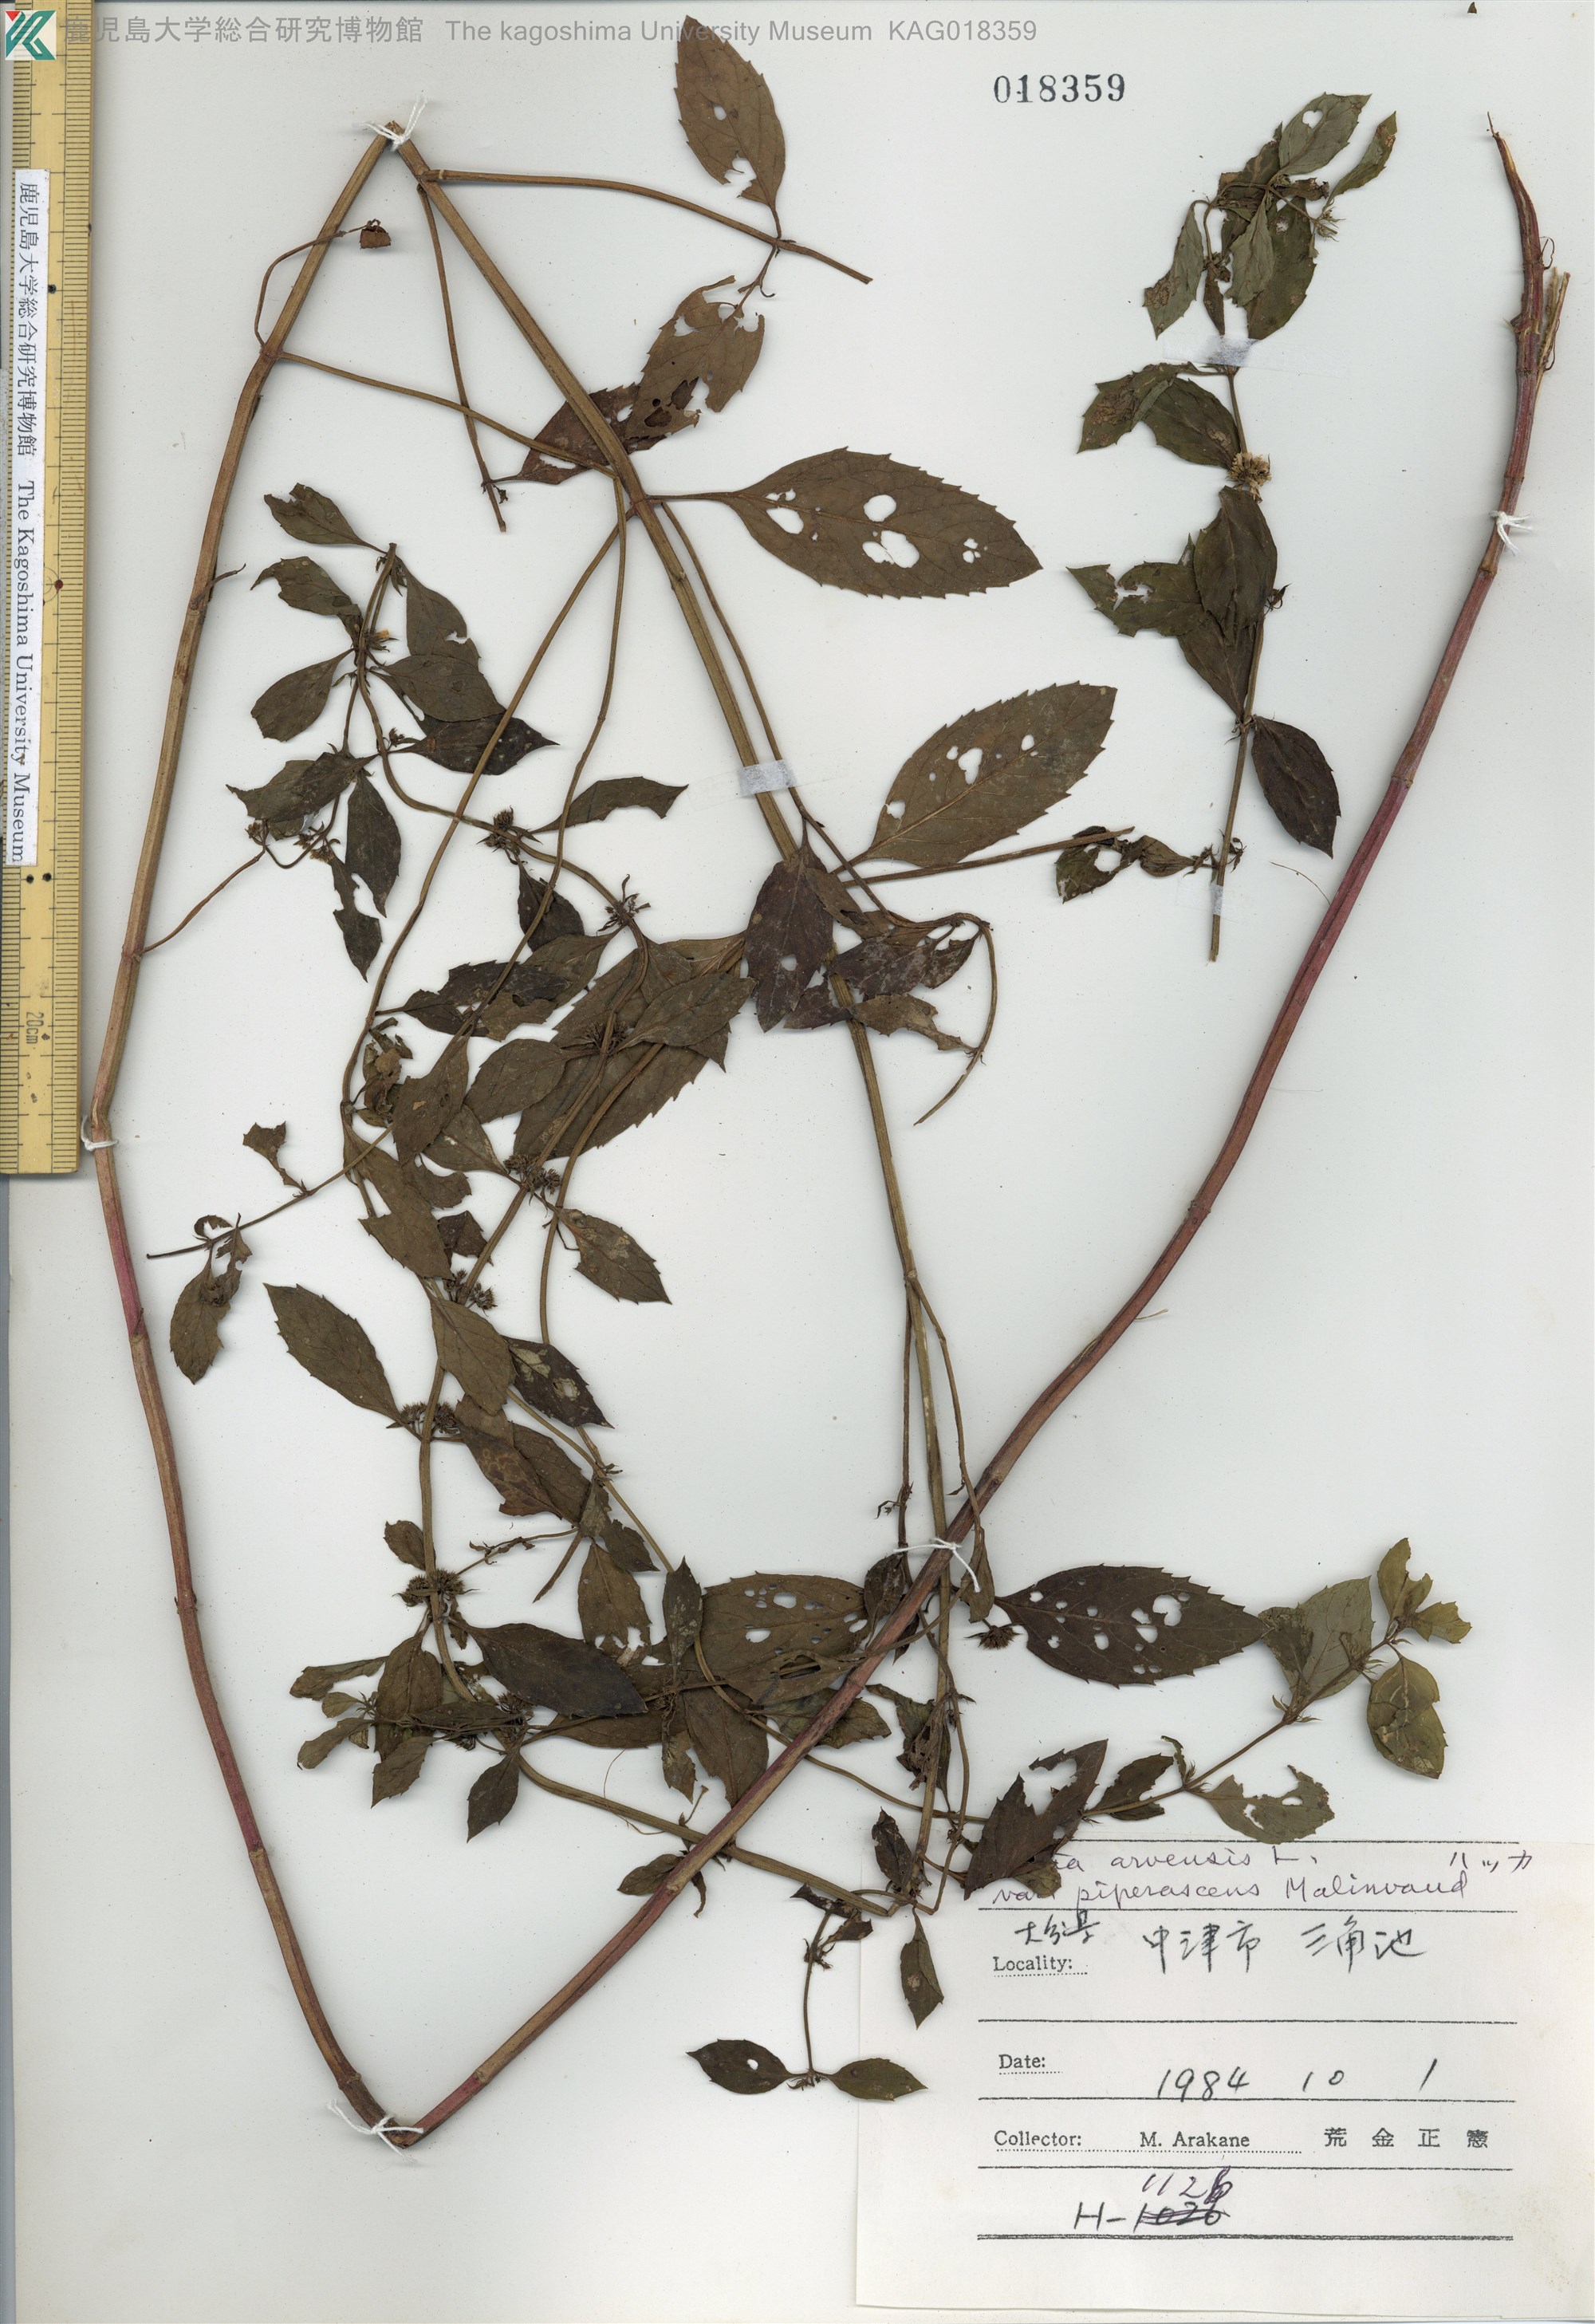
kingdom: Plantae
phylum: Tracheophyta
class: Magnoliopsida
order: Lamiales
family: Lamiaceae
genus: Mentha
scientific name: Mentha canadensis
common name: ハッカ
